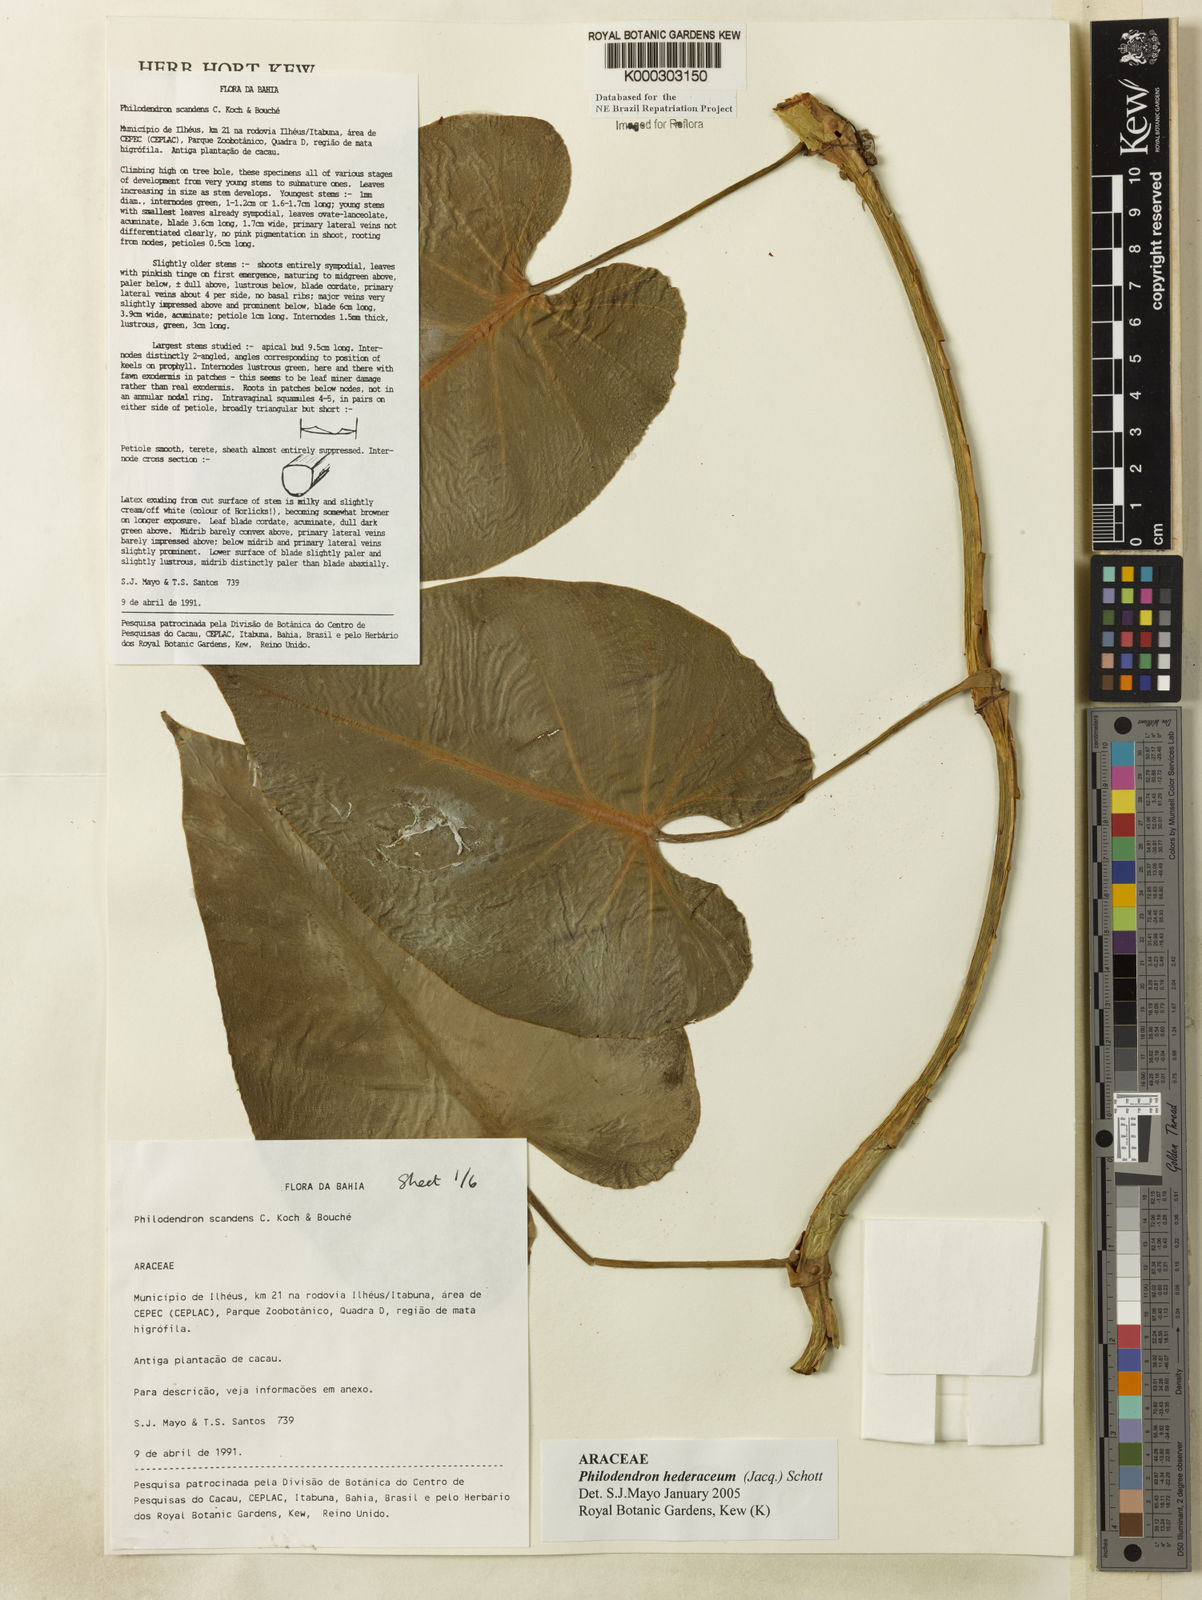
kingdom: Plantae
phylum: Tracheophyta
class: Liliopsida
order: Alismatales
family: Araceae
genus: Philodendron
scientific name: Philodendron hederaceum
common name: Vilevine
